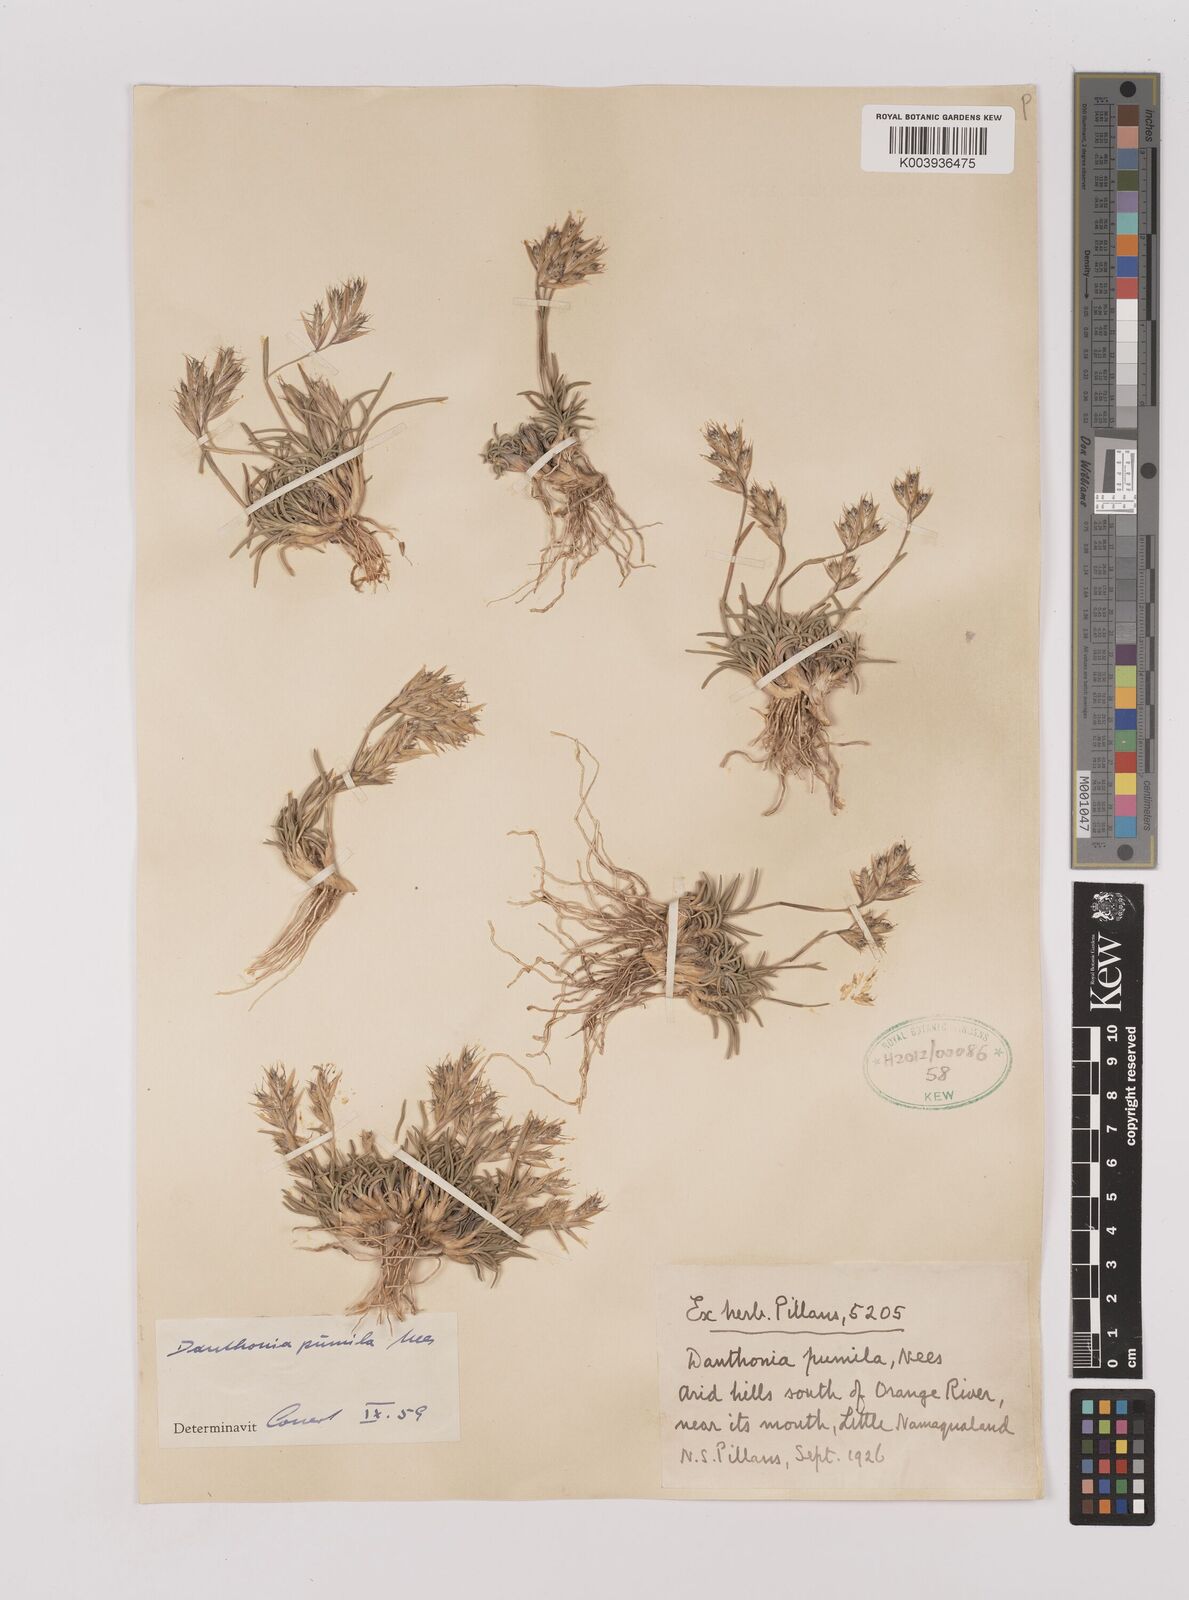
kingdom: Plantae
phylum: Tracheophyta
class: Liliopsida
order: Poales
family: Poaceae
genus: Dregeochloa
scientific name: Dregeochloa pumila
